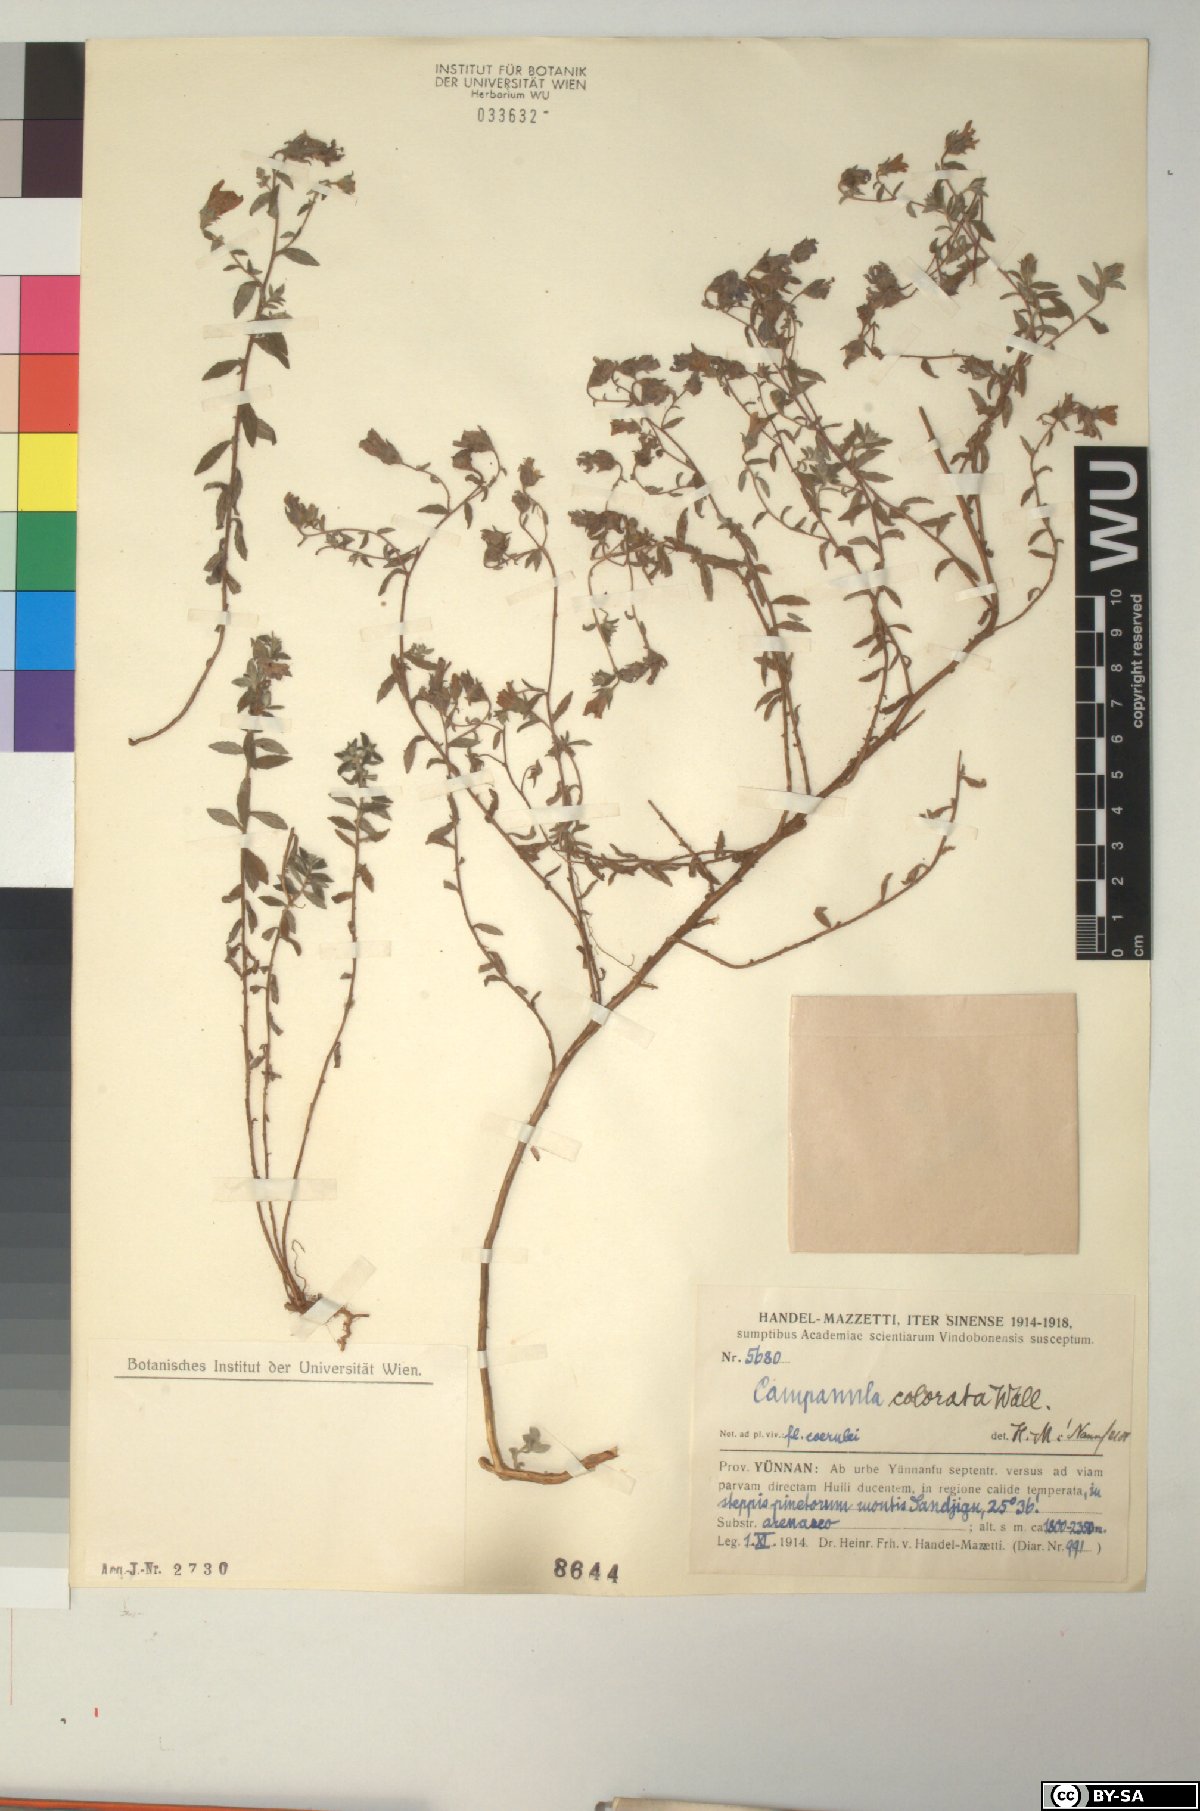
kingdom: Plantae
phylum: Tracheophyta
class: Magnoliopsida
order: Asterales
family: Campanulaceae
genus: Campanula
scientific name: Campanula pallida
